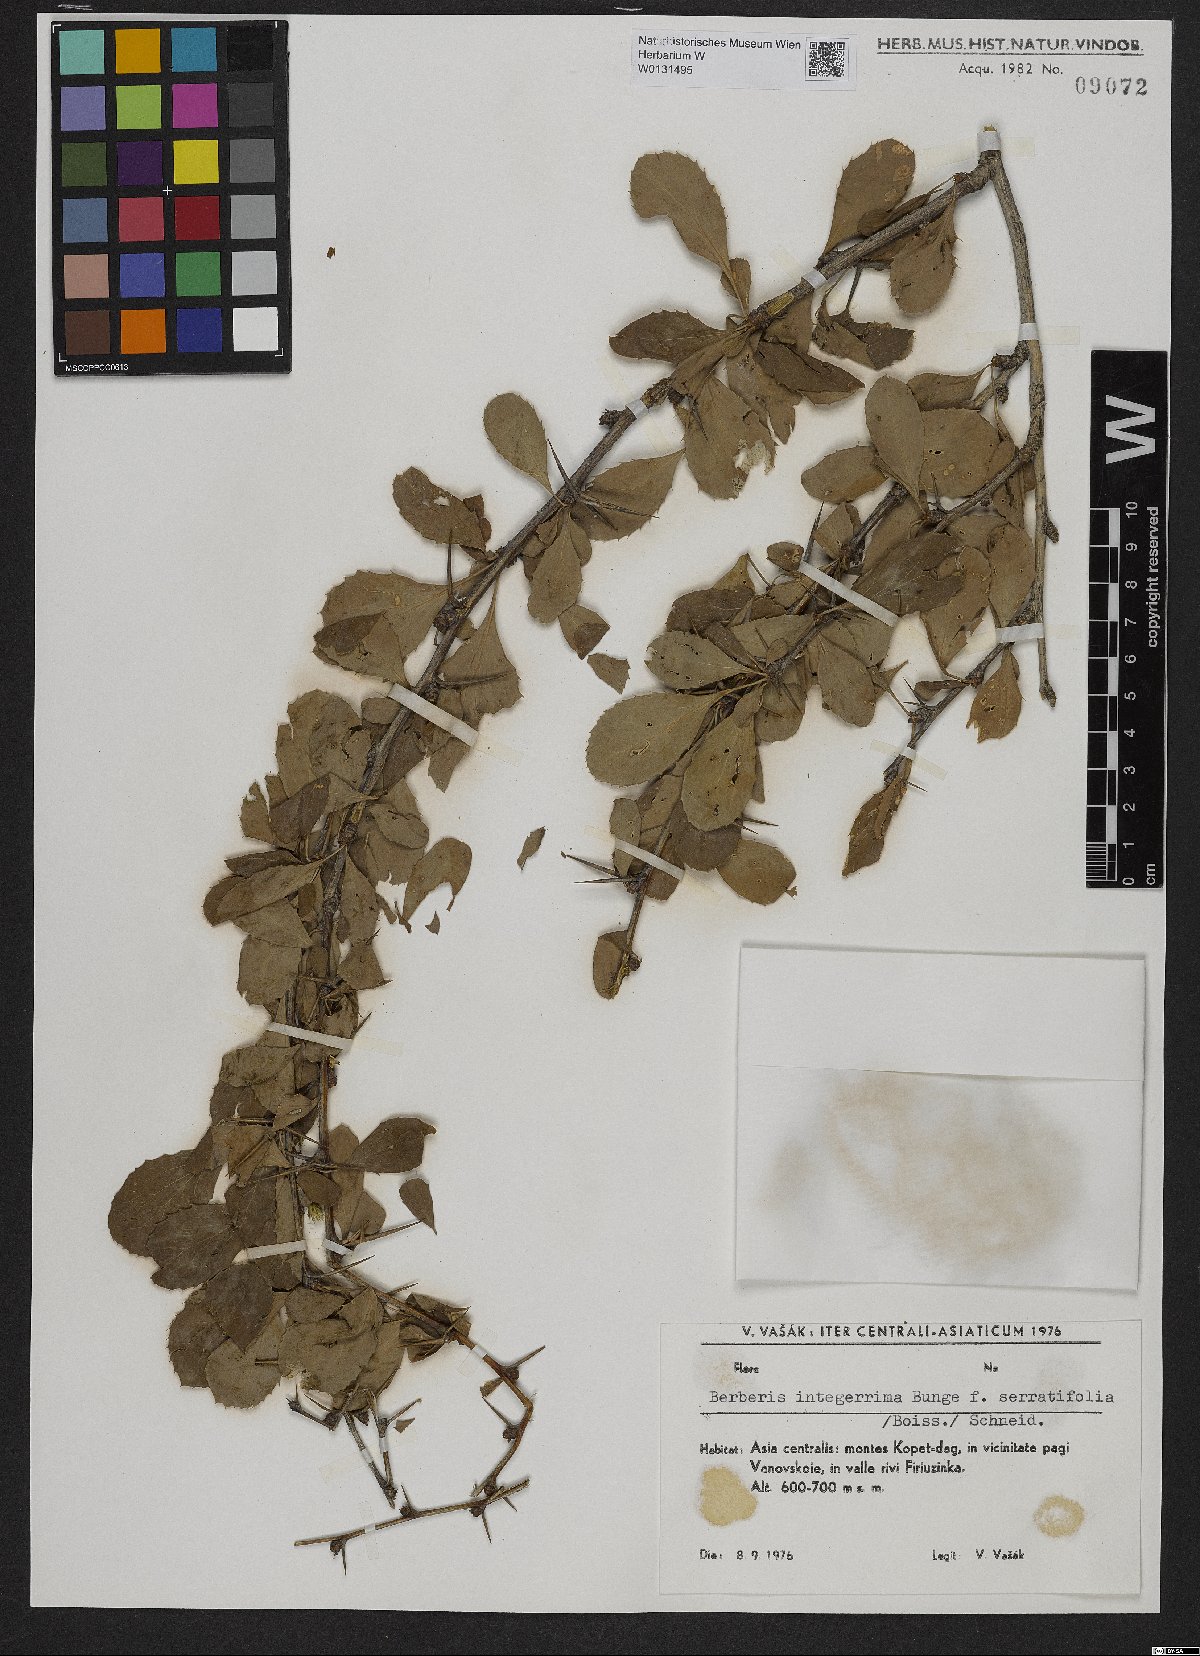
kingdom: Plantae
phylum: Tracheophyta
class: Magnoliopsida
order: Ranunculales
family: Berberidaceae
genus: Berberis
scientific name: Berberis integerrima
